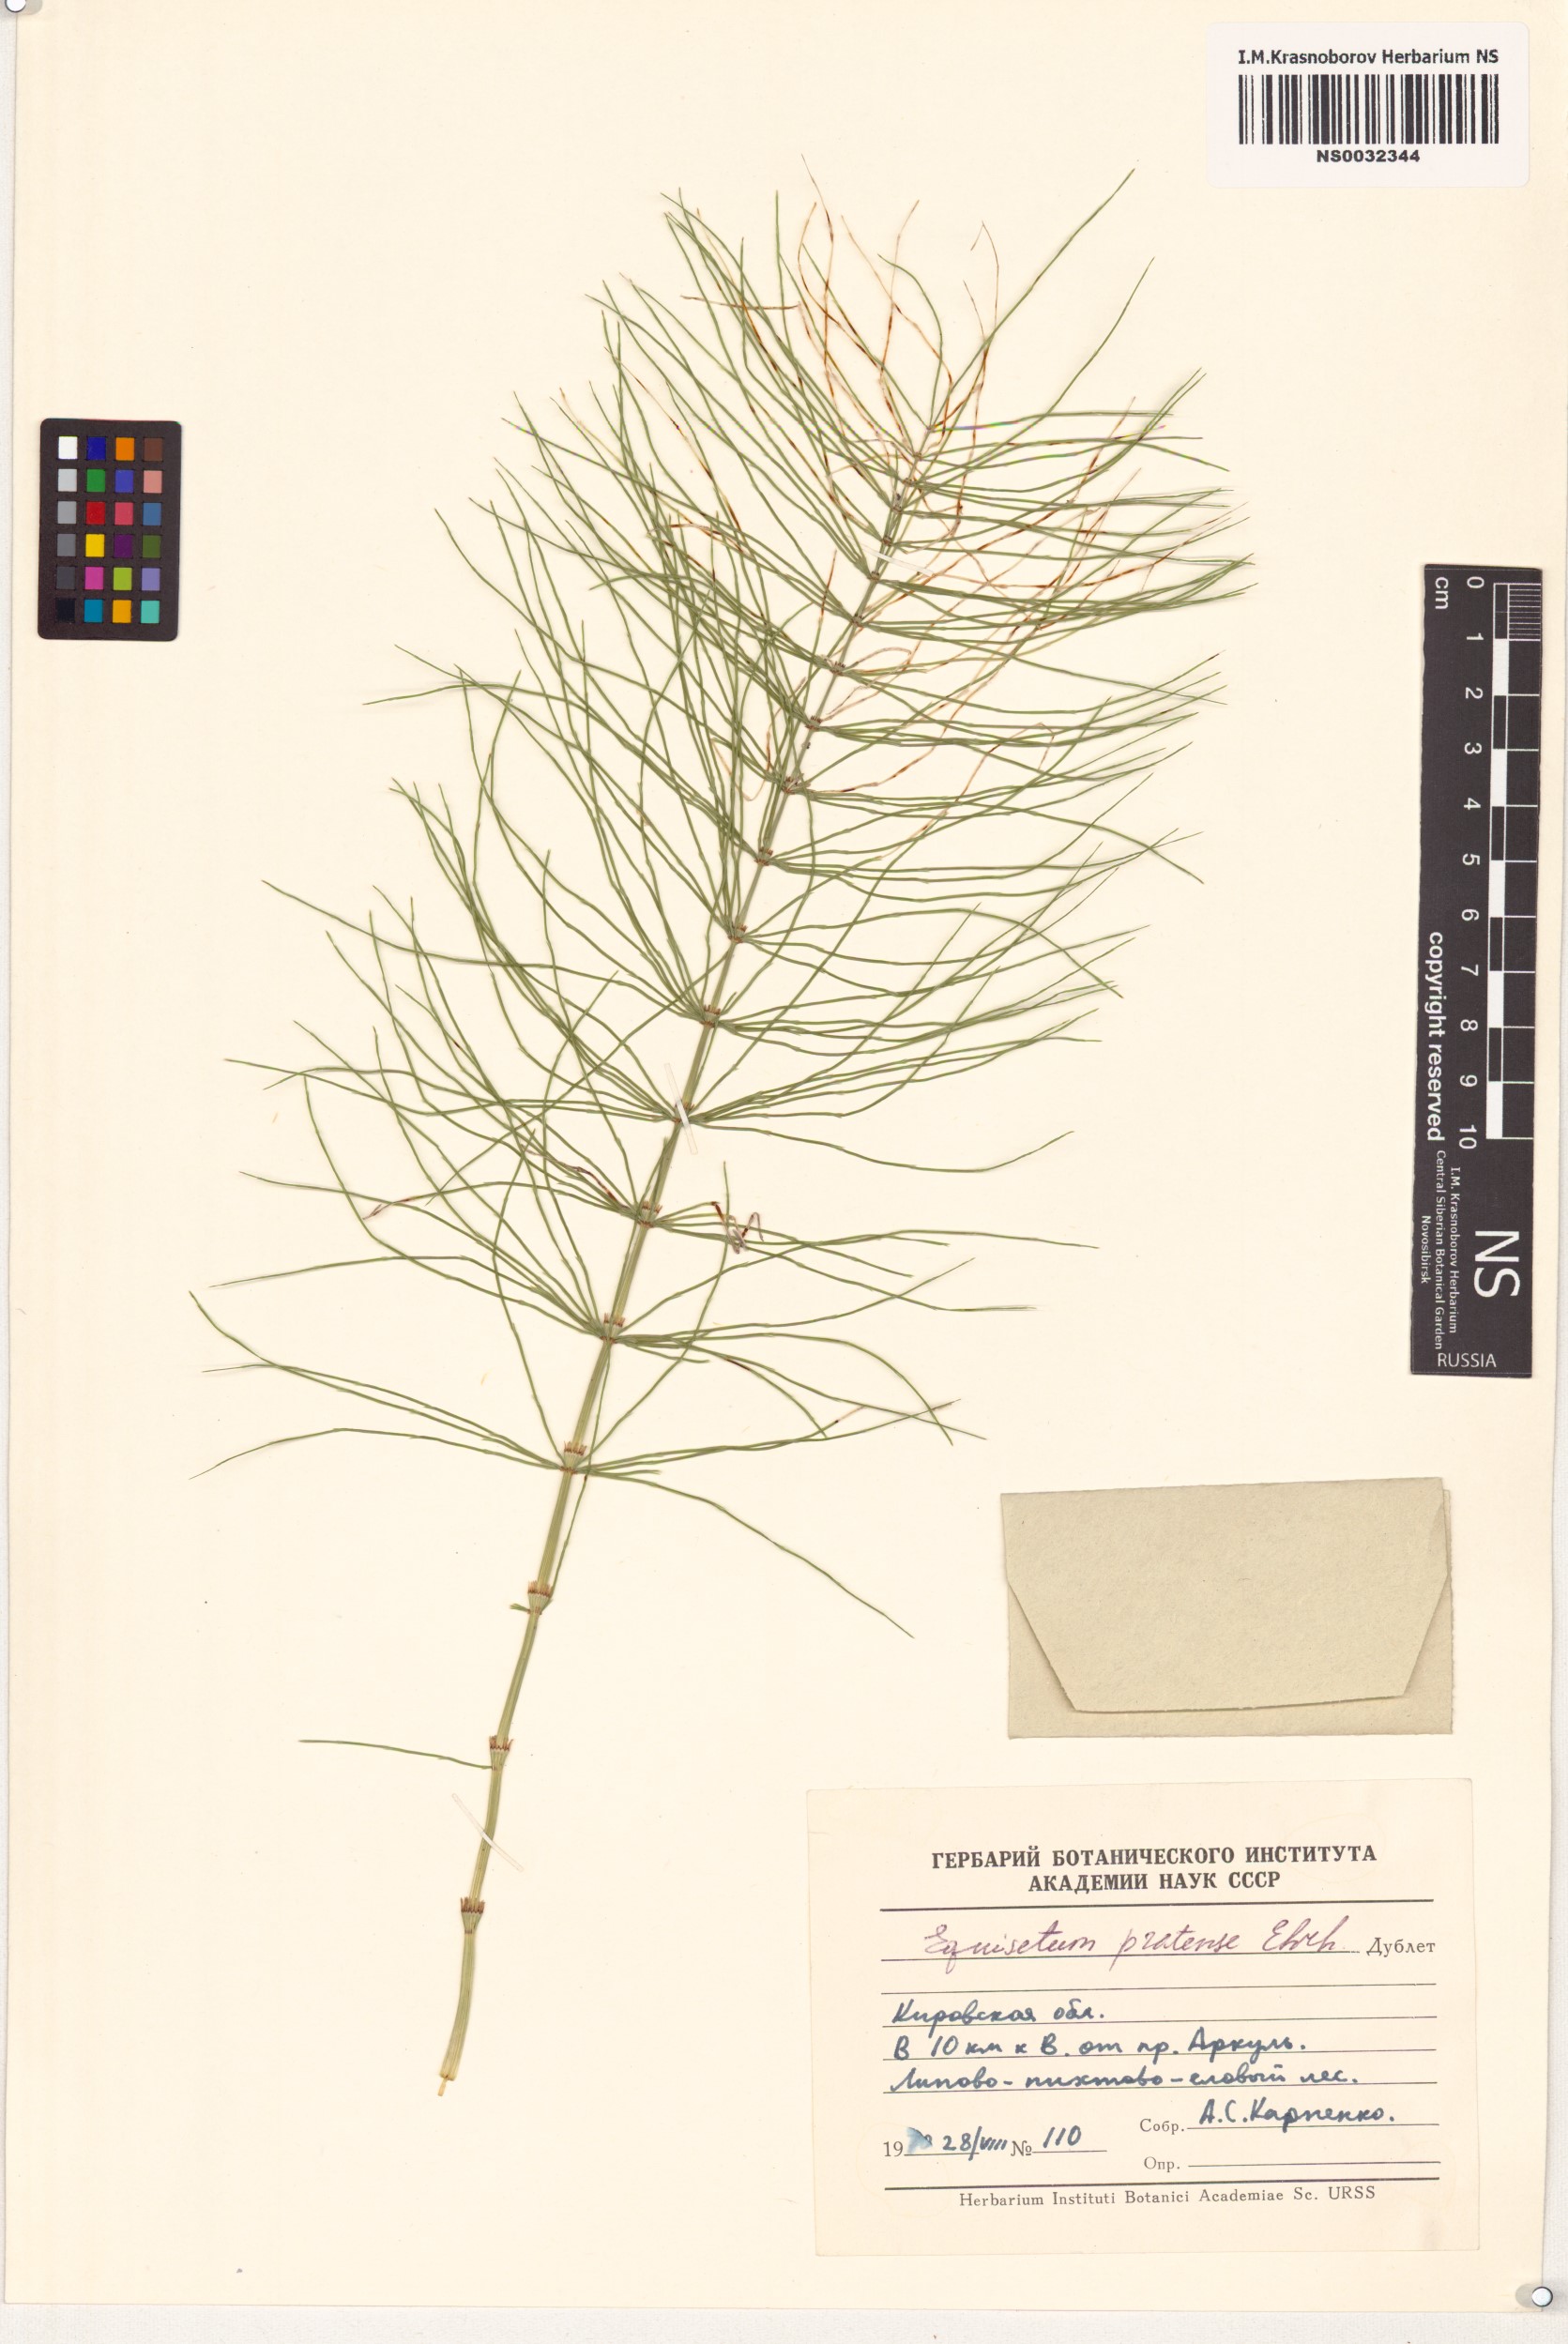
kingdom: Plantae
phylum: Tracheophyta
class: Polypodiopsida
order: Equisetales
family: Equisetaceae
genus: Equisetum
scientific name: Equisetum pratense
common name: Meadow horsetail
